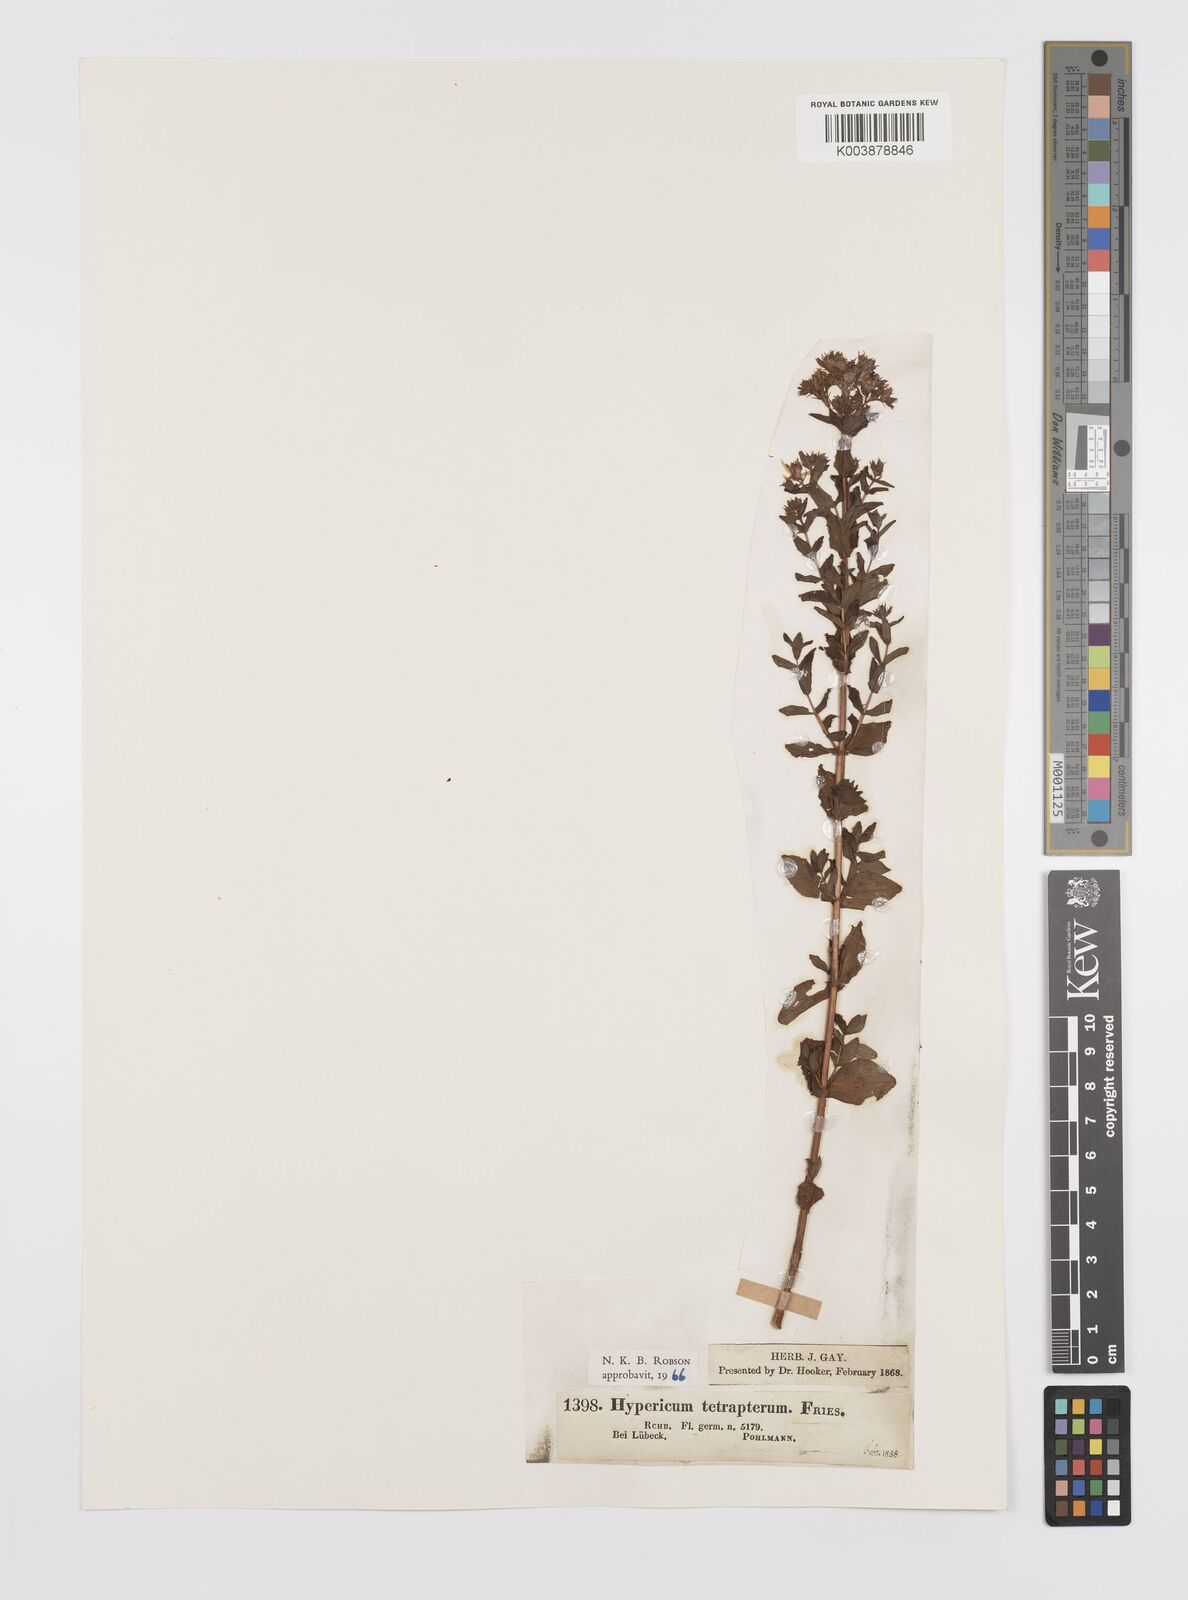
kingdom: Plantae
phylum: Tracheophyta
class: Magnoliopsida
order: Malpighiales
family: Hypericaceae
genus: Hypericum
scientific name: Hypericum tetrapterum
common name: Square-stalked st. john's-wort
